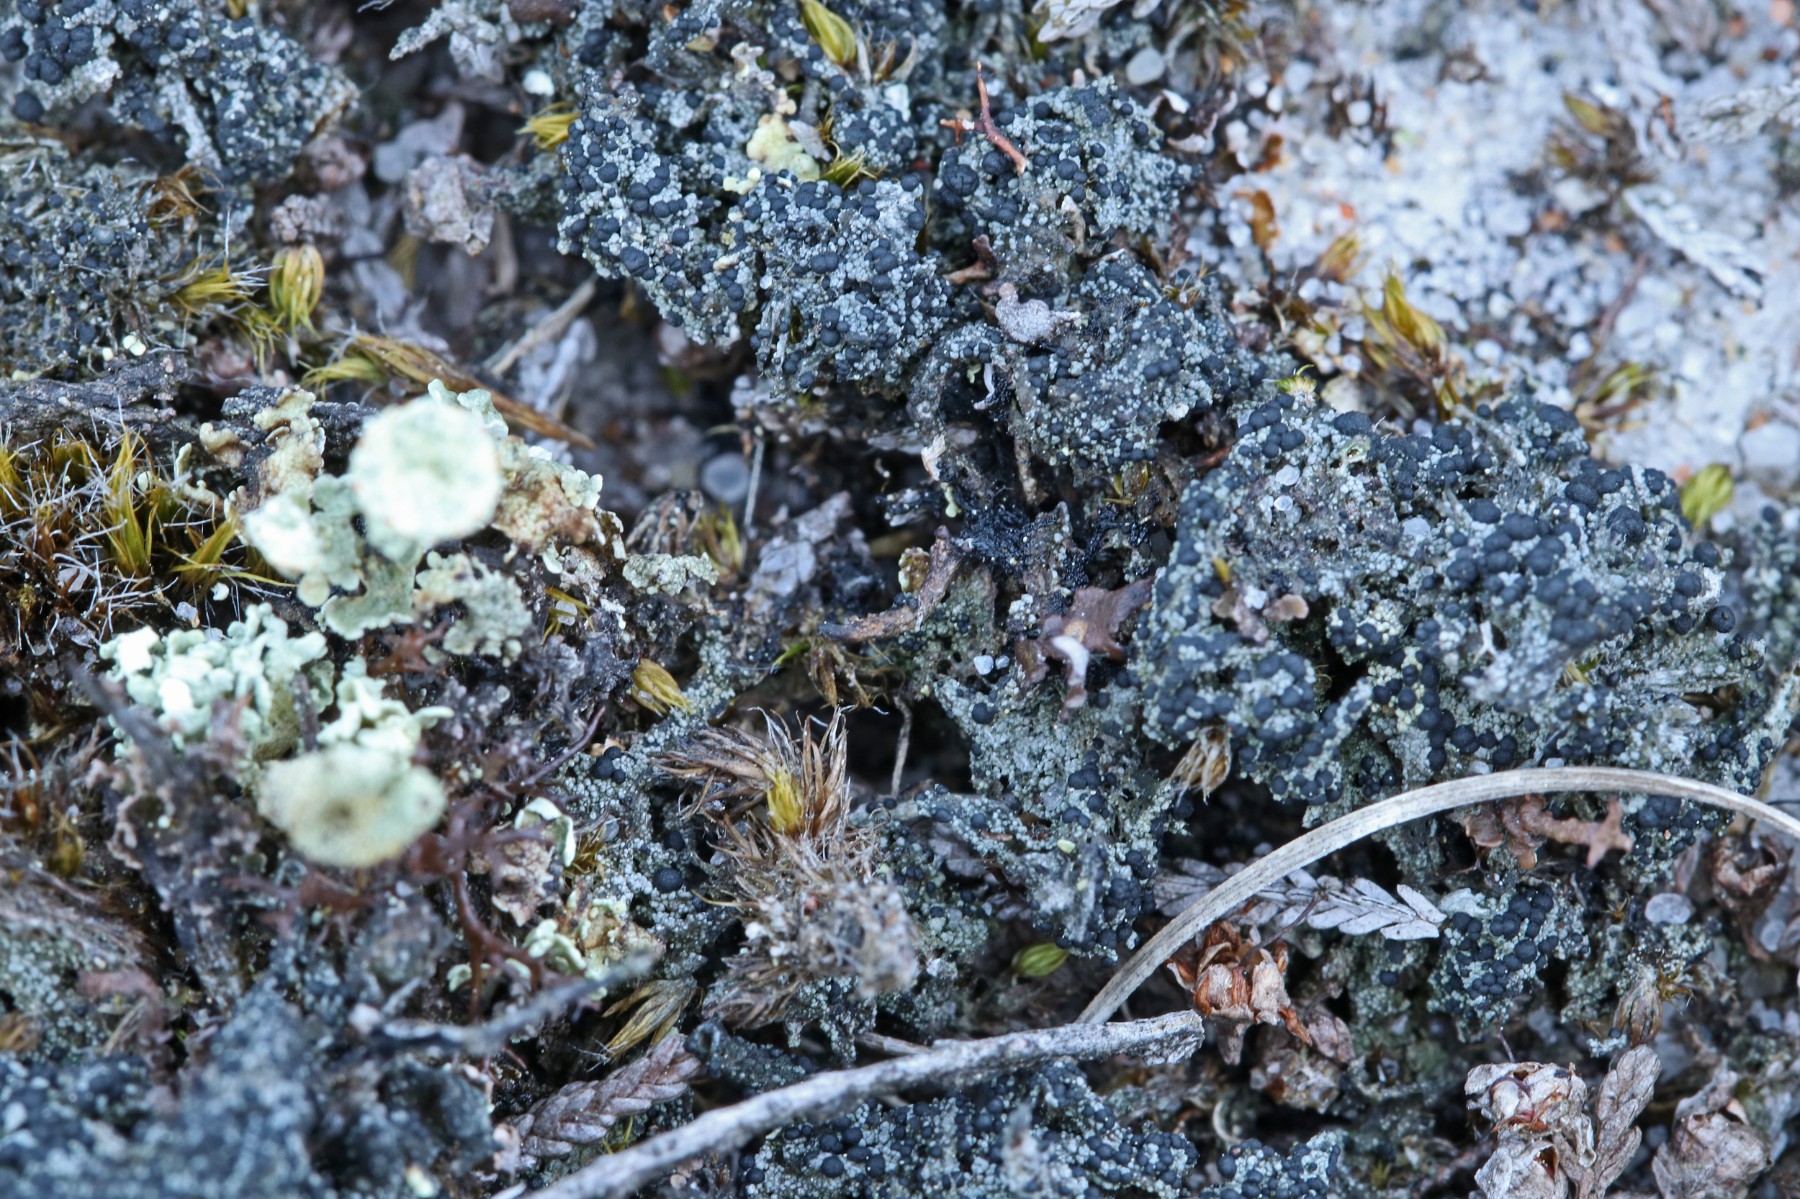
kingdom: Fungi
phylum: Ascomycota
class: Lecanoromycetes
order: Lecanorales
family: Byssolomataceae
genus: Micarea
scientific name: Micarea lignaria
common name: tørve-knaplav
